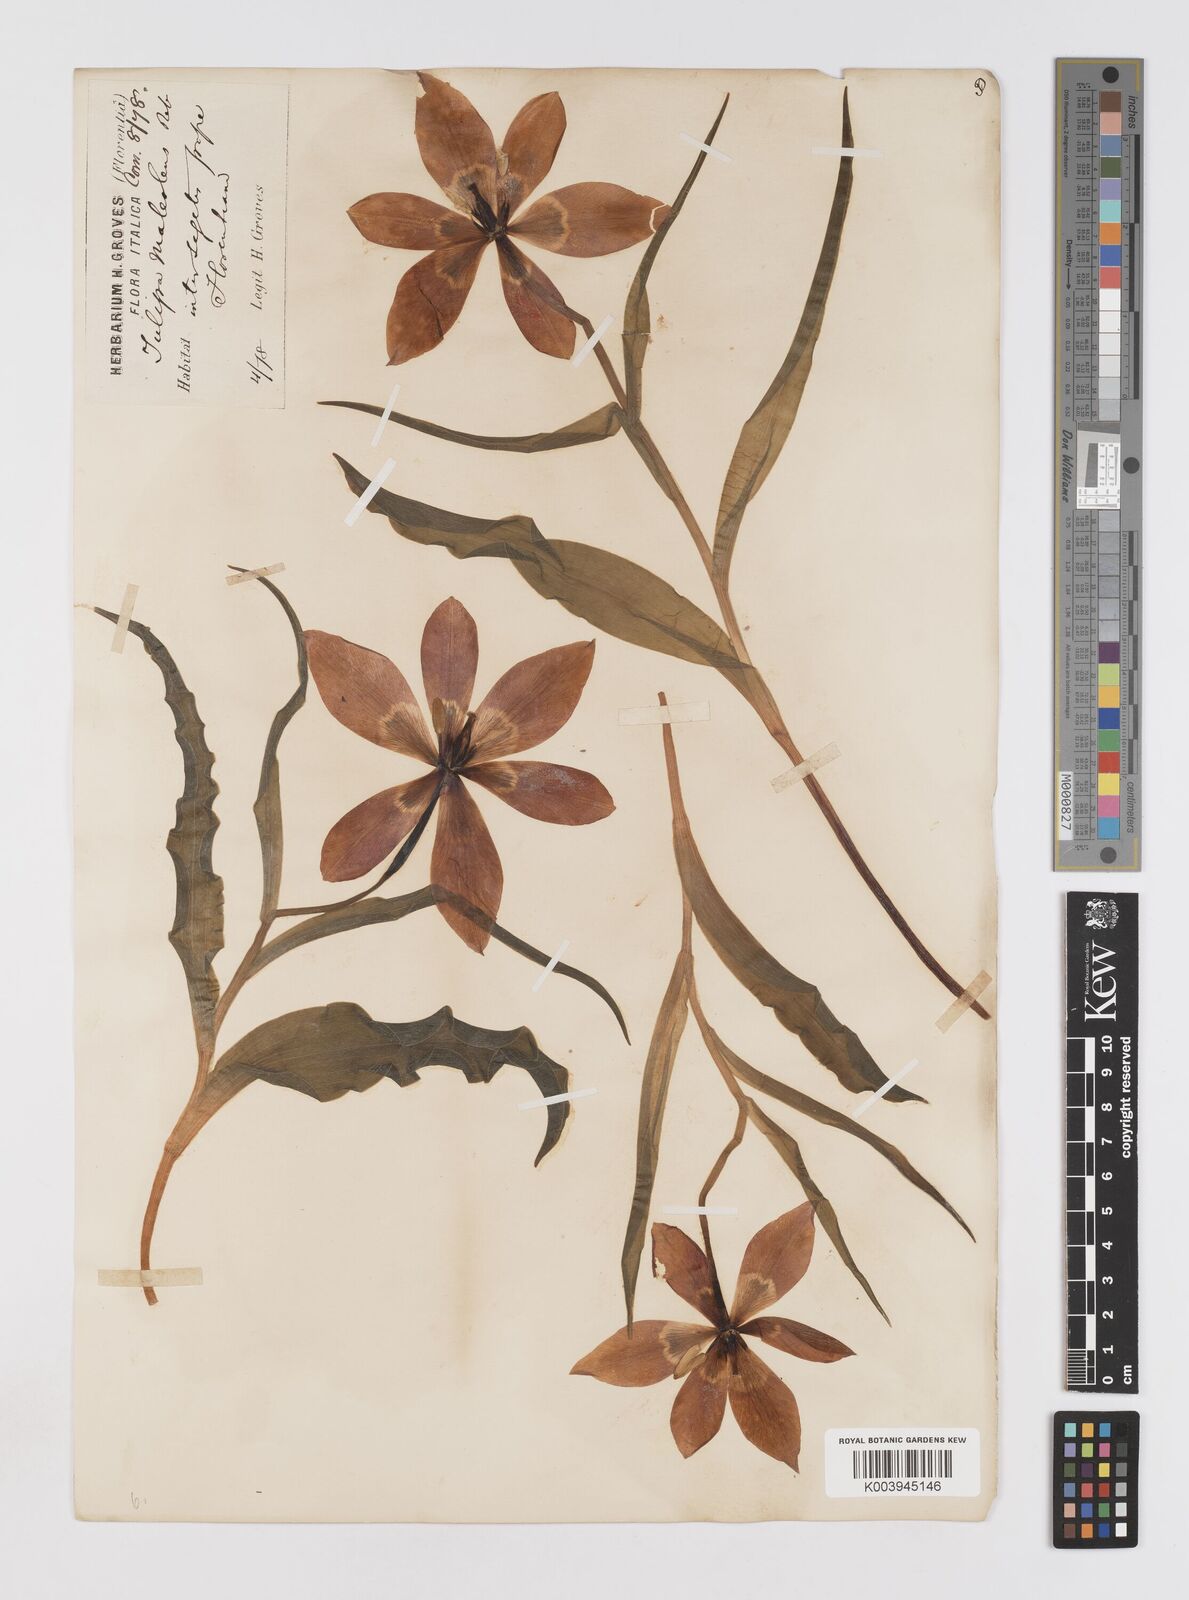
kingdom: Plantae
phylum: Tracheophyta
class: Liliopsida
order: Liliales
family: Liliaceae
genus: Tulipa
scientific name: Tulipa agenensis
